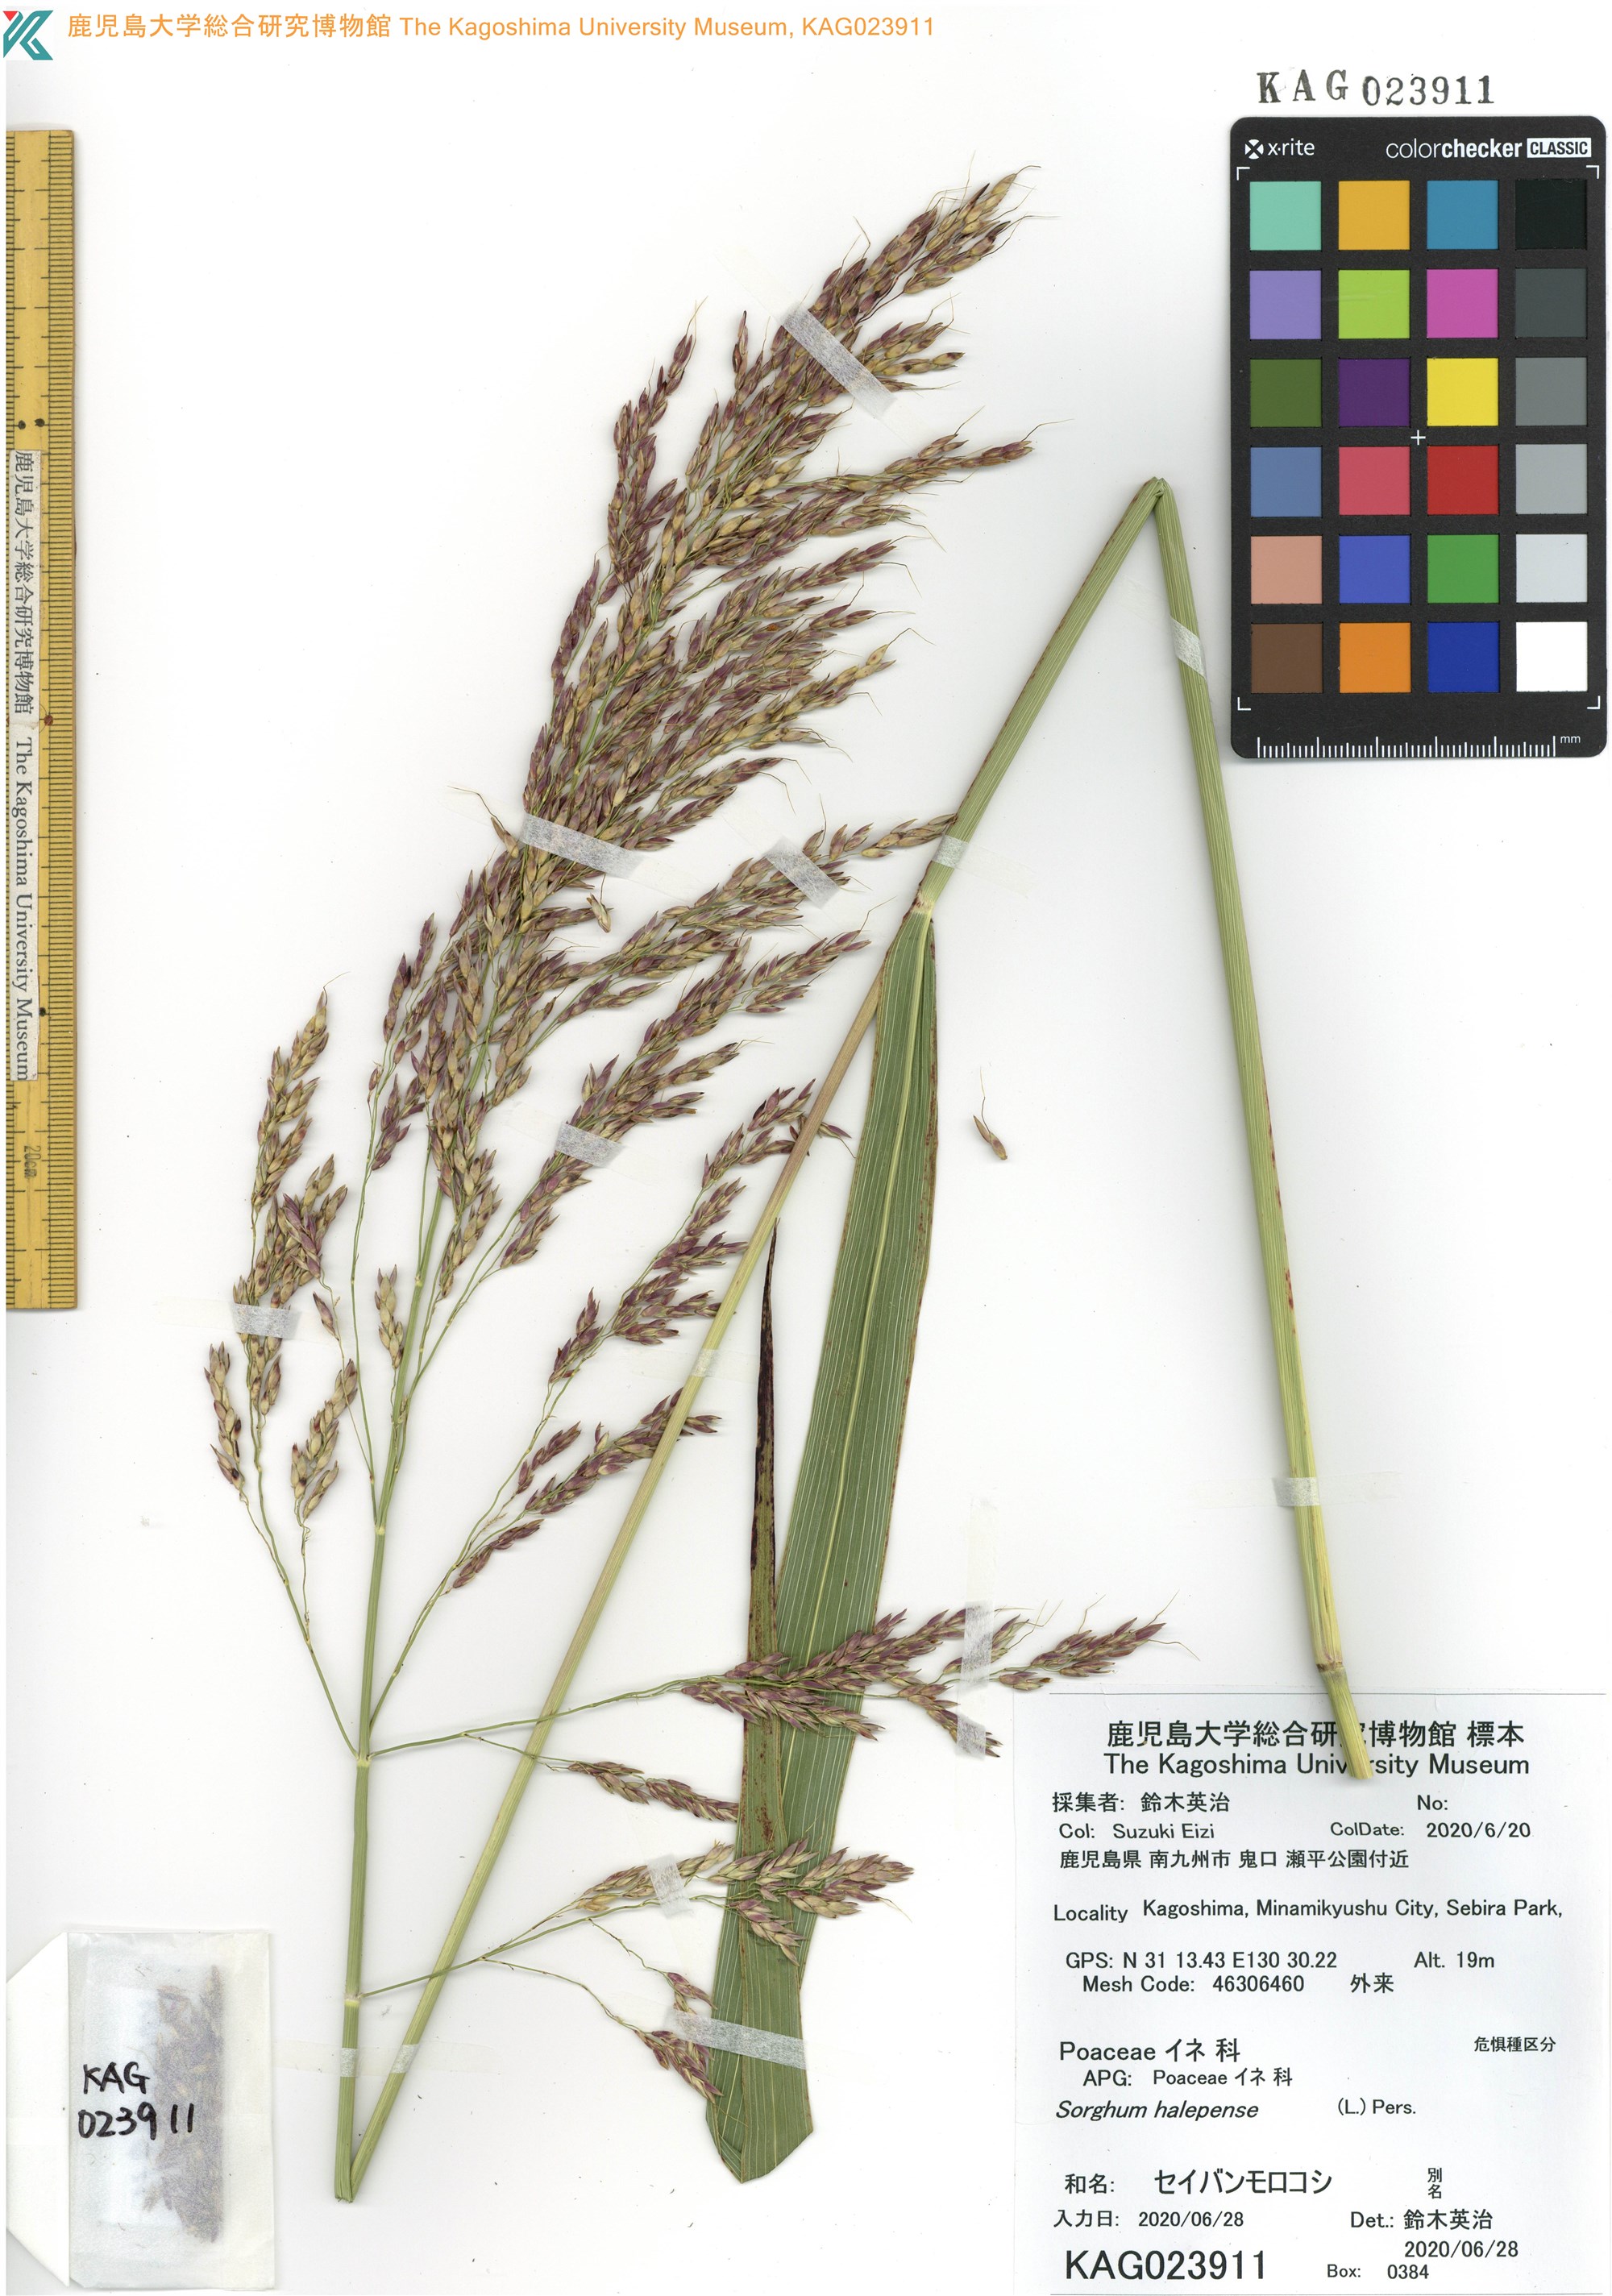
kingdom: Plantae
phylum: Tracheophyta
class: Liliopsida
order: Poales
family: Poaceae
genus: Sorghum
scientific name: Sorghum halepense
